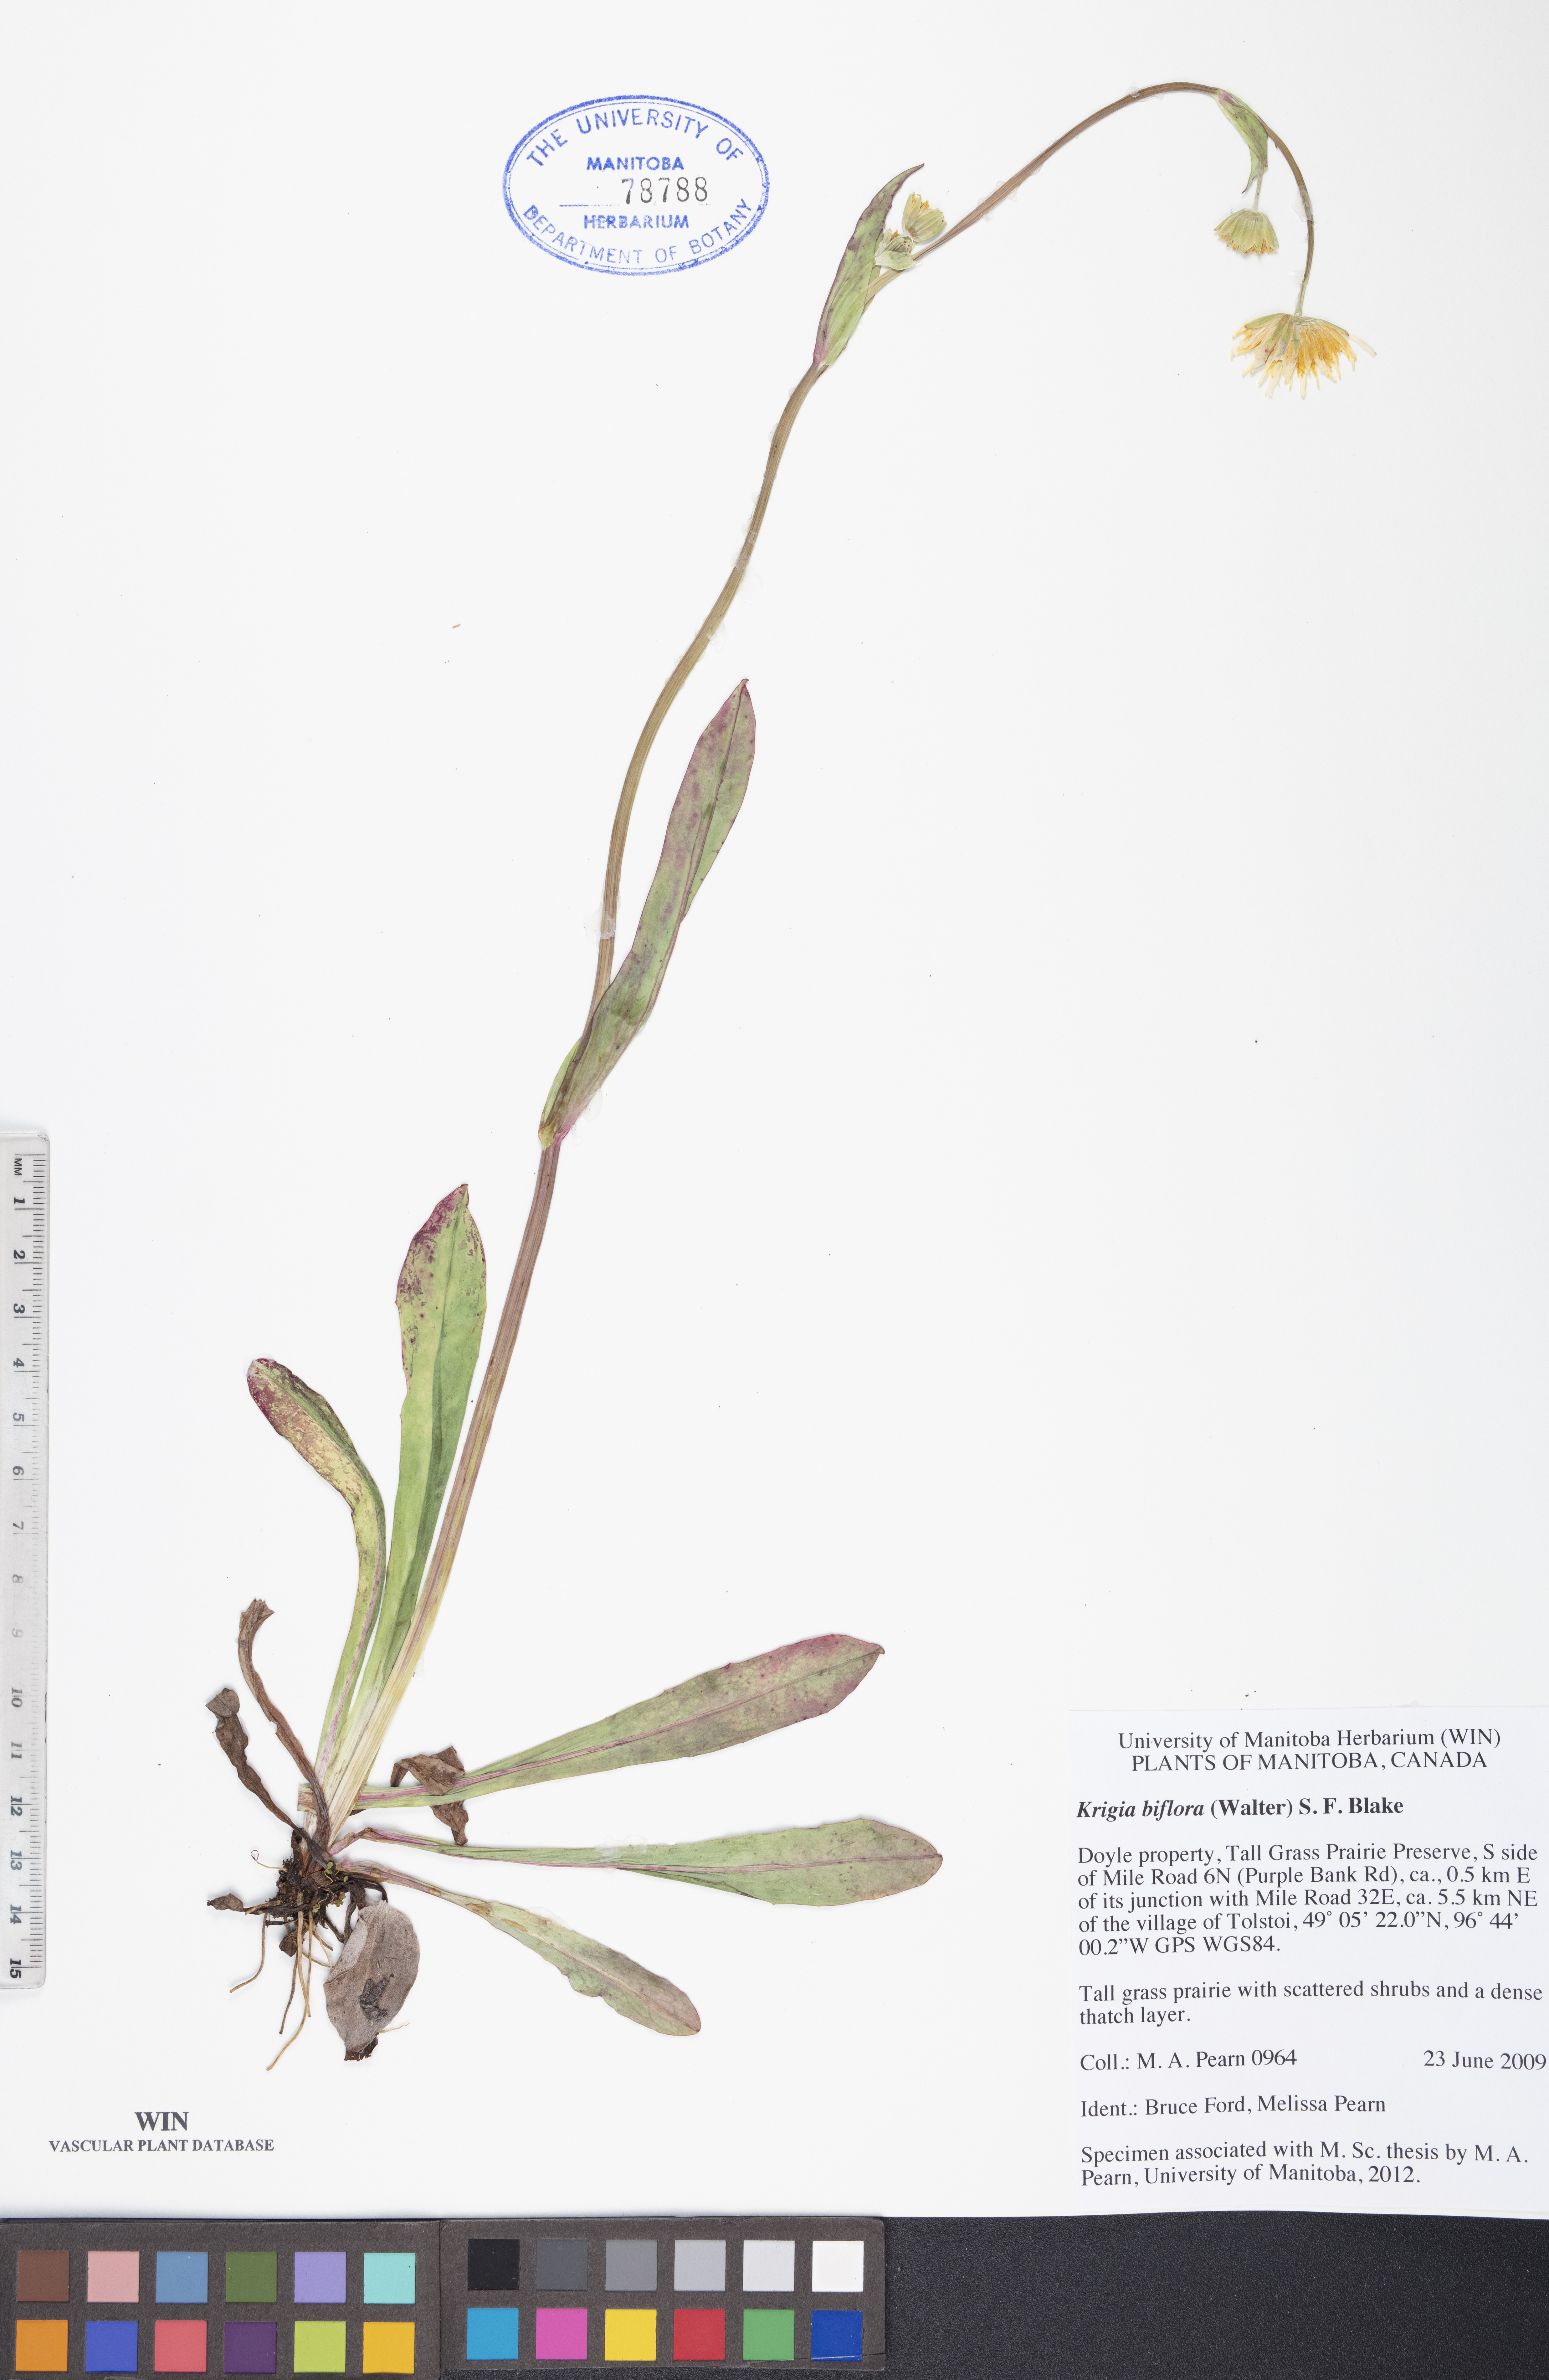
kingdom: Plantae
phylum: Tracheophyta
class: Magnoliopsida
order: Asterales
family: Asteraceae
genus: Krigia
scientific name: Krigia biflora
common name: Orange dwarf-dandelion
